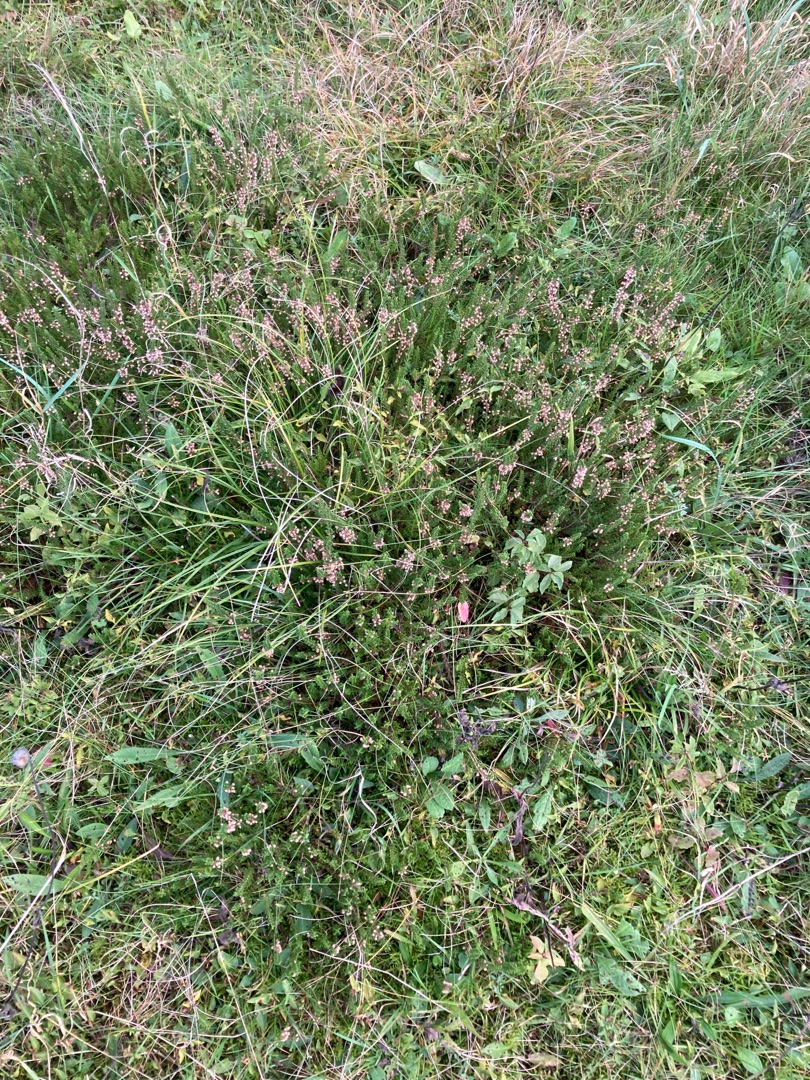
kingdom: Plantae
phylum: Tracheophyta
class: Magnoliopsida
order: Ericales
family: Ericaceae
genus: Calluna
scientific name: Calluna vulgaris
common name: Hedelyng
